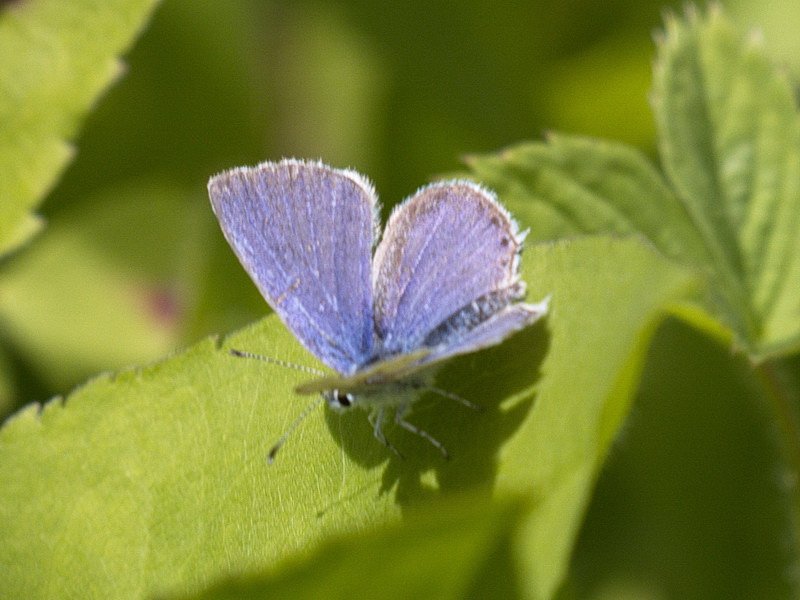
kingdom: Animalia
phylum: Arthropoda
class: Insecta
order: Lepidoptera
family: Lycaenidae
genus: Elkalyce
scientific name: Elkalyce amyntula
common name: Western Tailed-Blue
